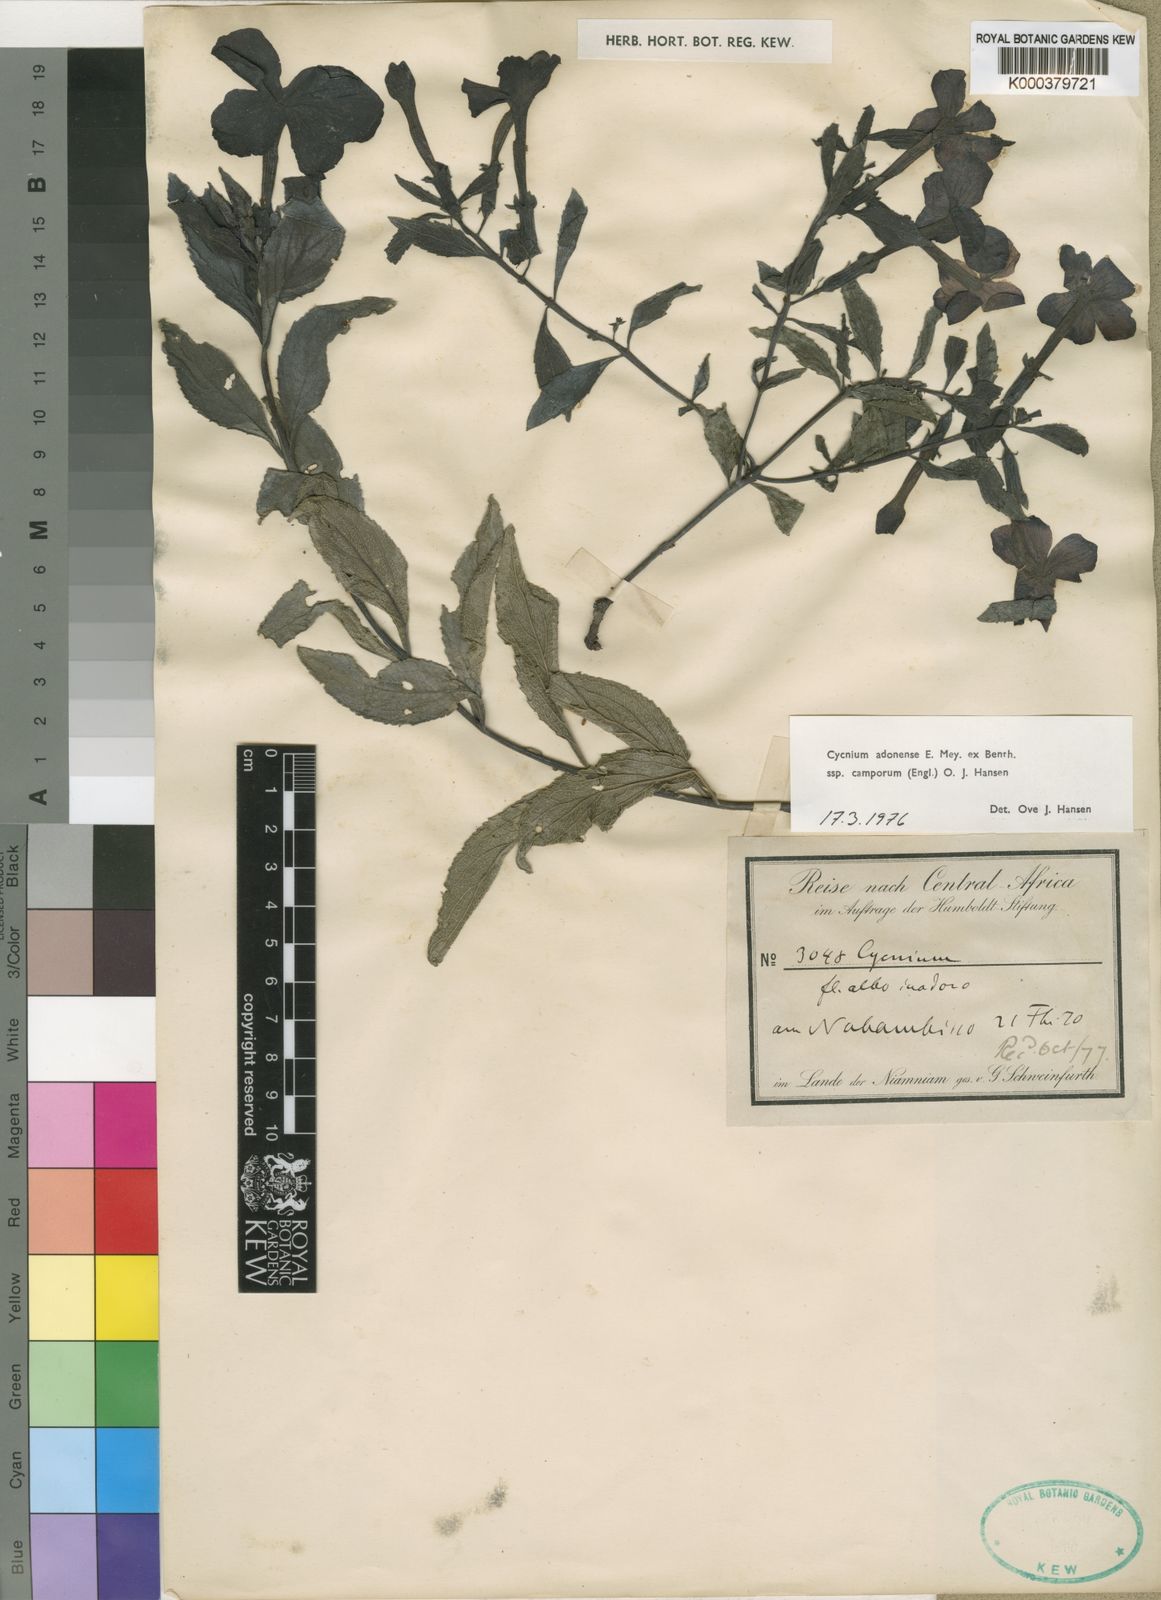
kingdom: Plantae
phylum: Tracheophyta
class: Magnoliopsida
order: Lamiales
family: Orobanchaceae
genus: Cycnium
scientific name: Cycnium adoense
